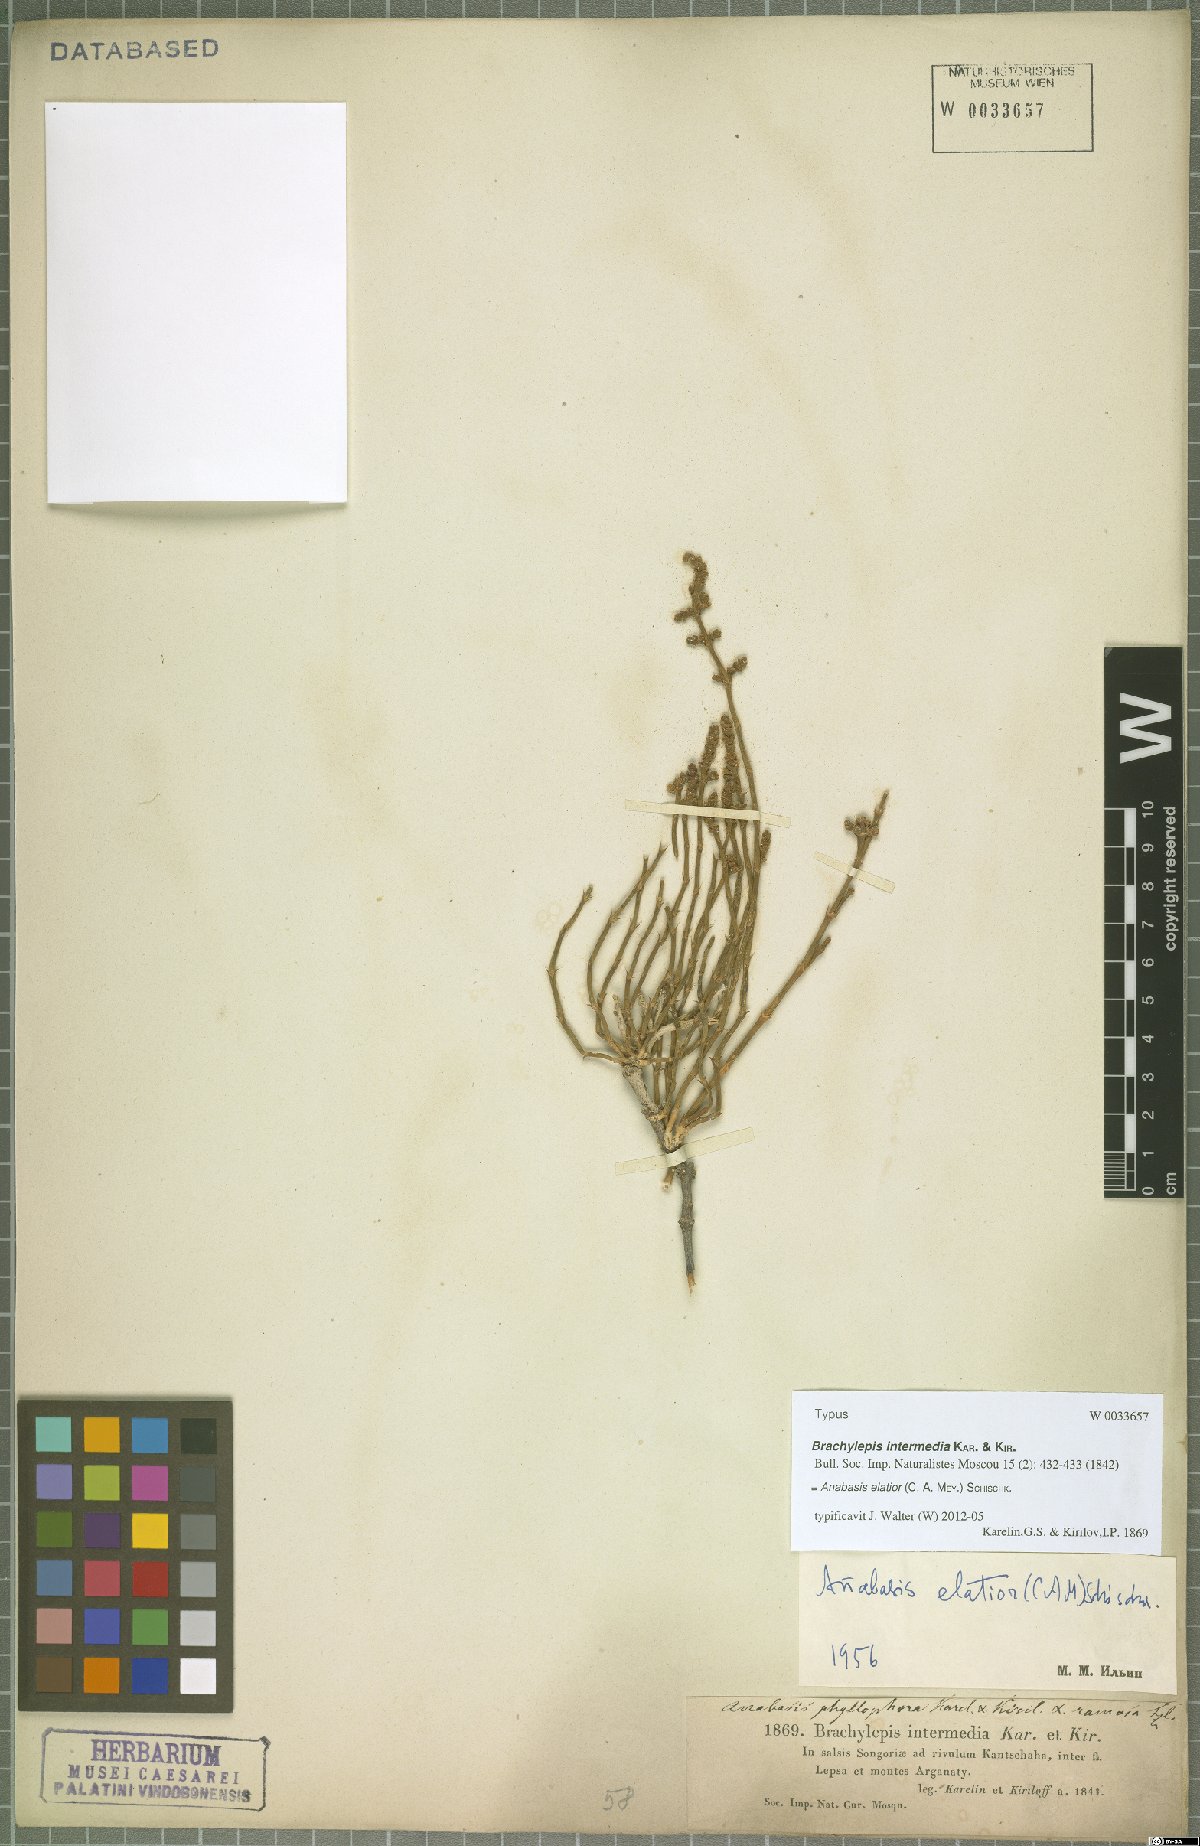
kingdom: Plantae
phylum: Tracheophyta
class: Magnoliopsida
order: Caryophyllales
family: Amaranthaceae
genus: Anabasis
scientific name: Anabasis elatior
